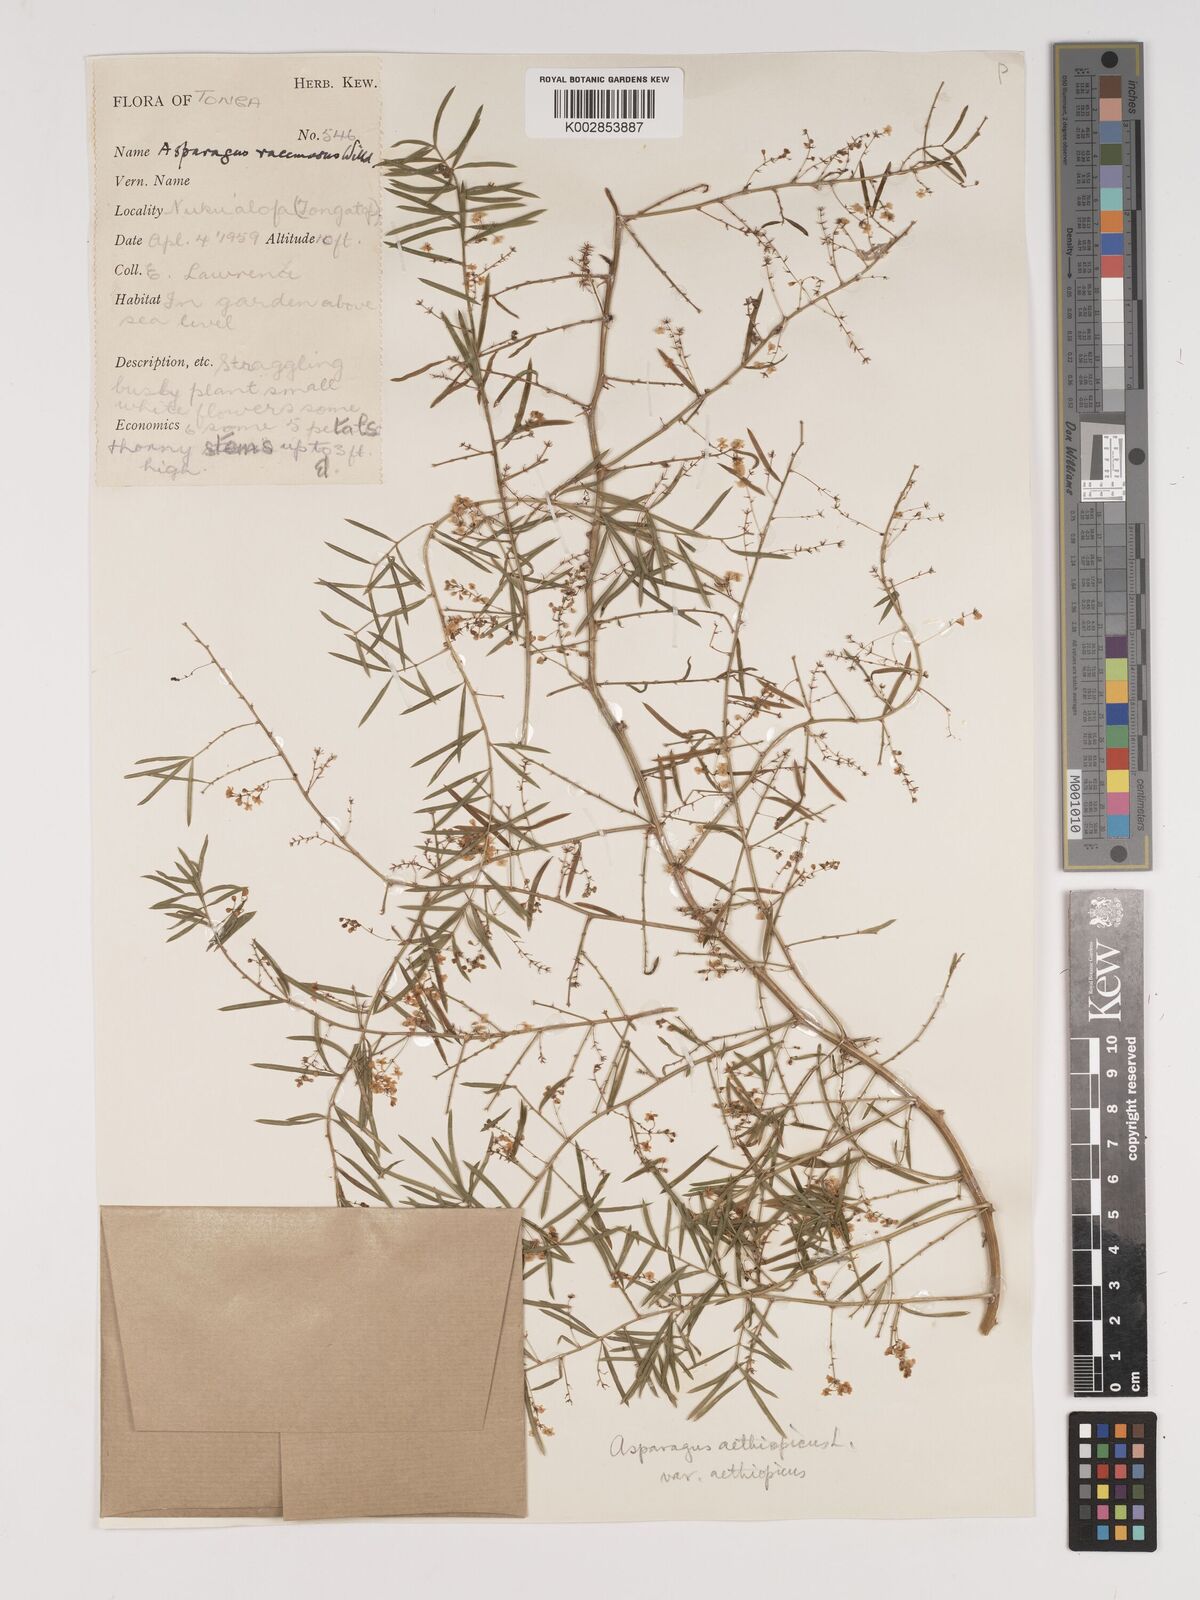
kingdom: Plantae
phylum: Tracheophyta
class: Liliopsida
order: Asparagales
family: Asparagaceae
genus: Asparagus
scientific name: Asparagus racemosus
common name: Asparagus-fern
